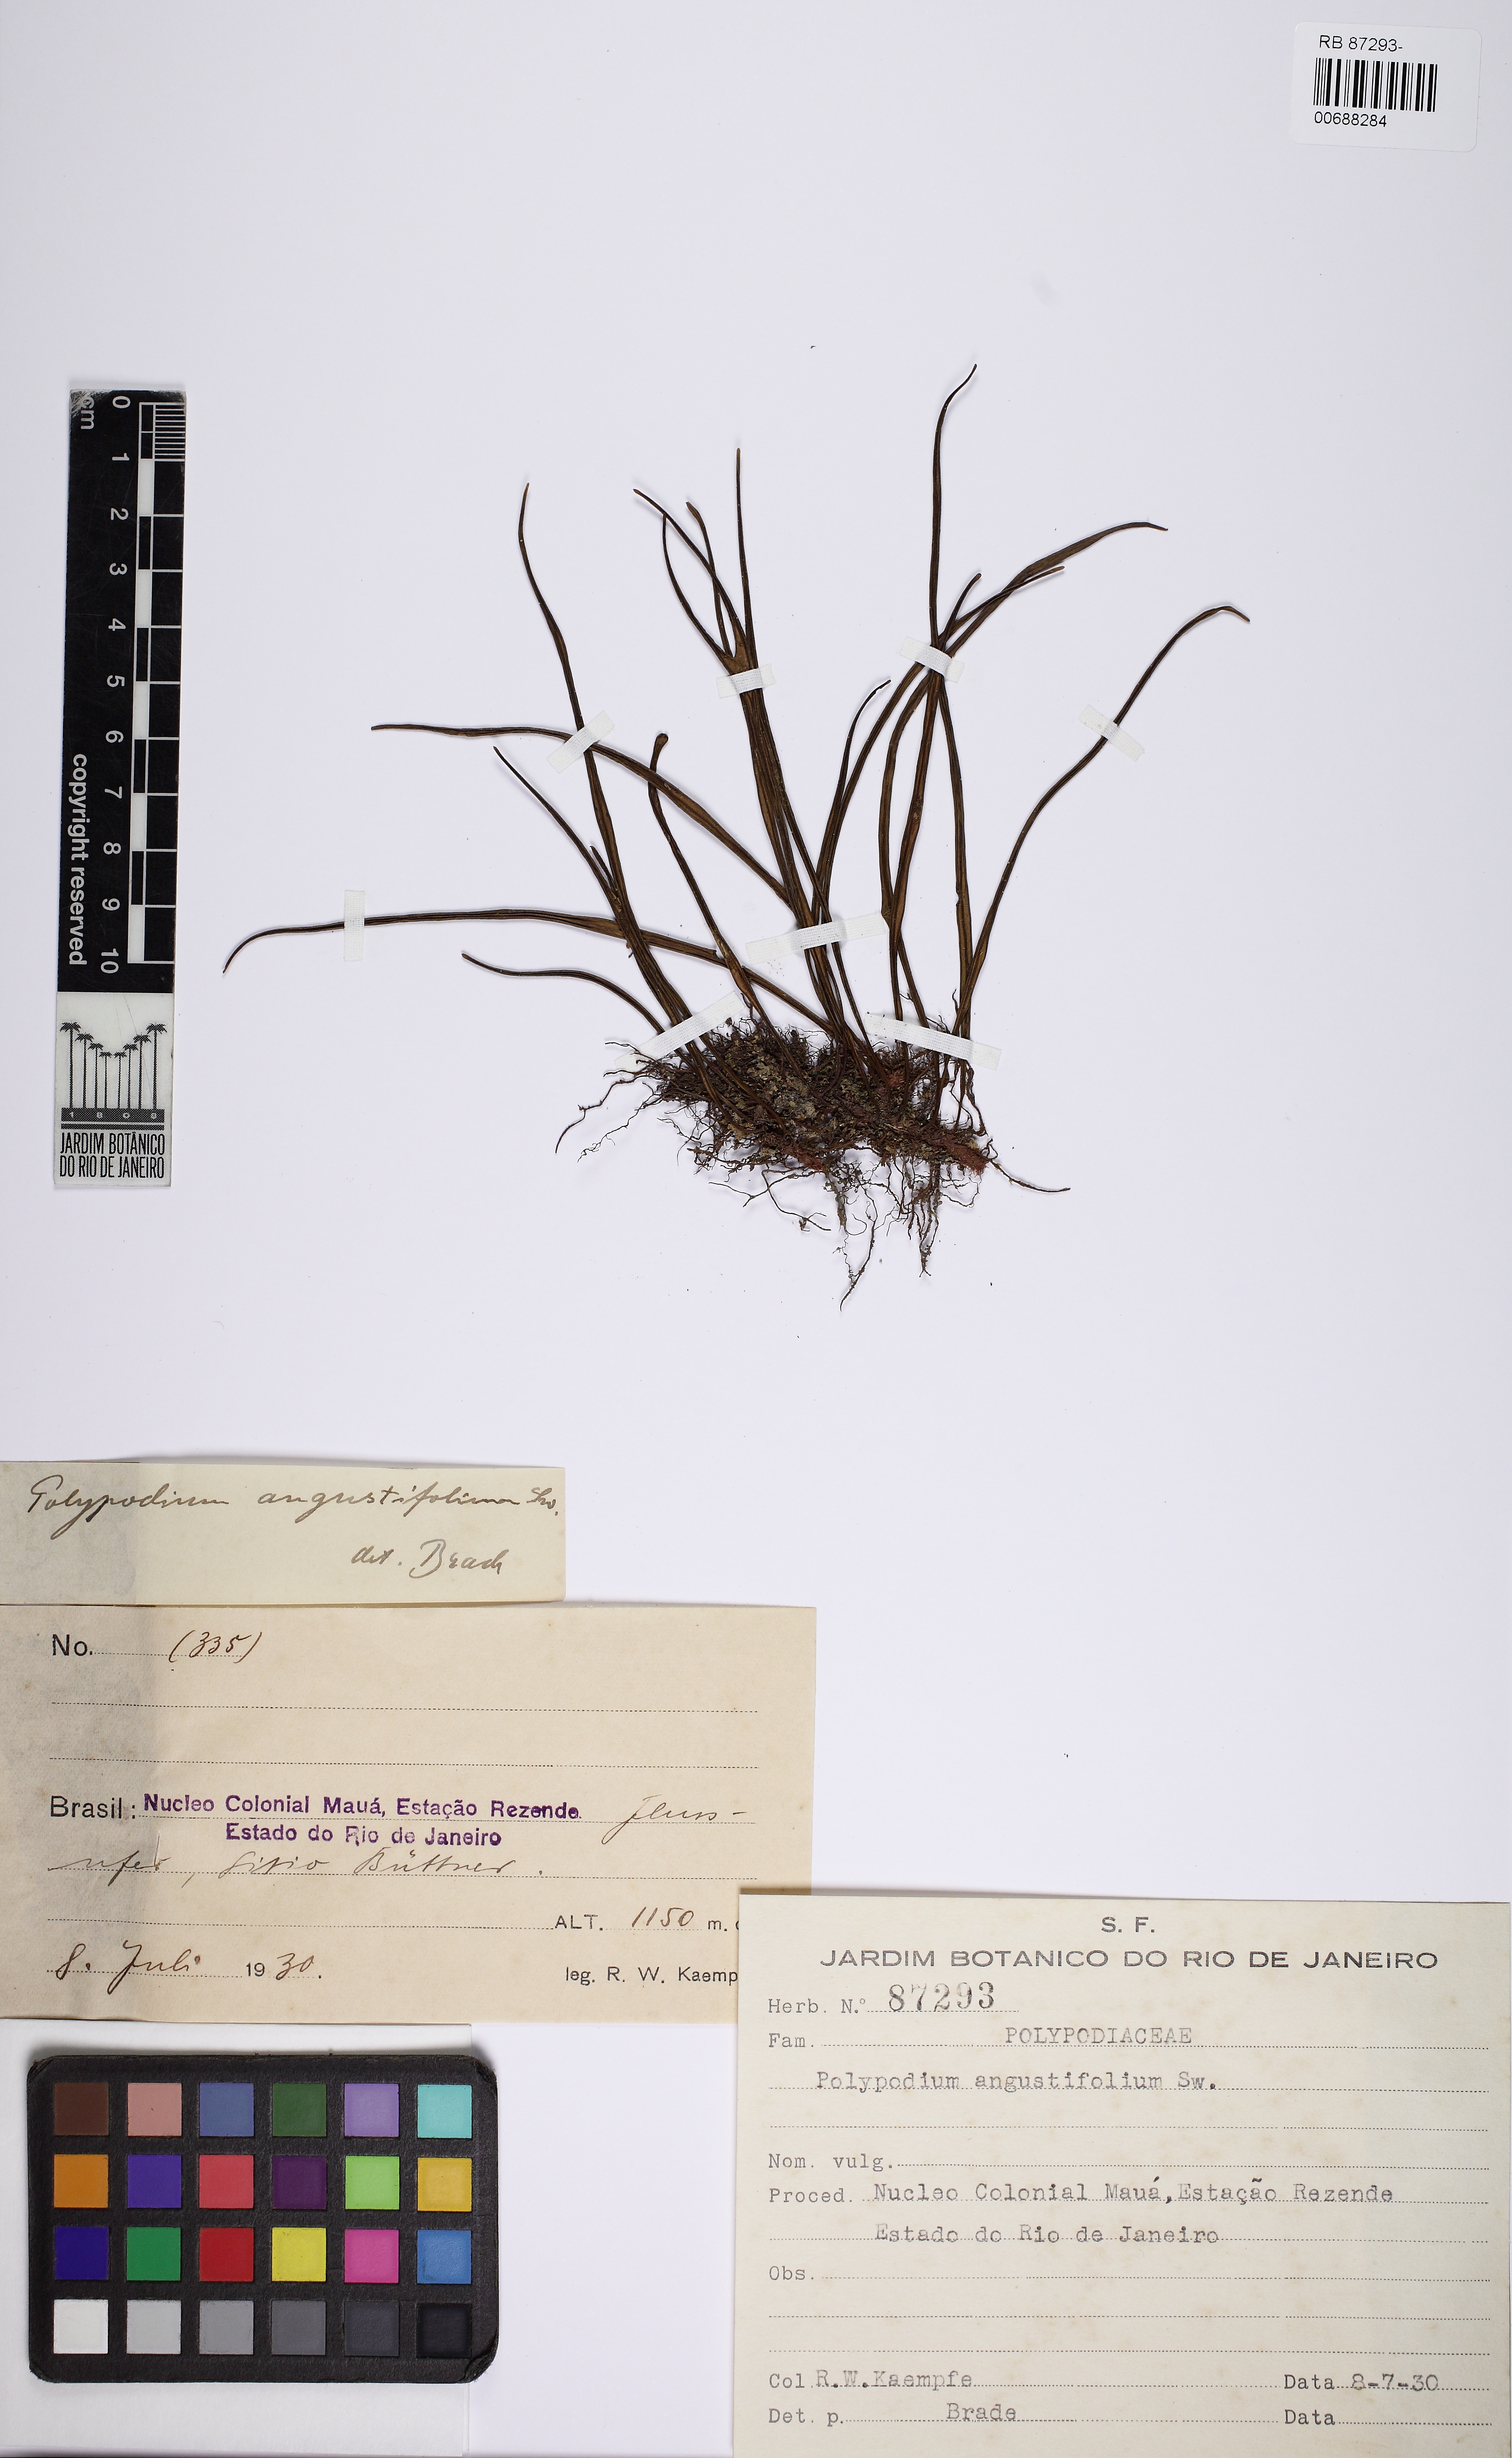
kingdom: Plantae
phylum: Tracheophyta
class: Polypodiopsida
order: Polypodiales
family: Polypodiaceae
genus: Campyloneurum
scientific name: Campyloneurum angustifolium
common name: Narrow-leaf strap fern
